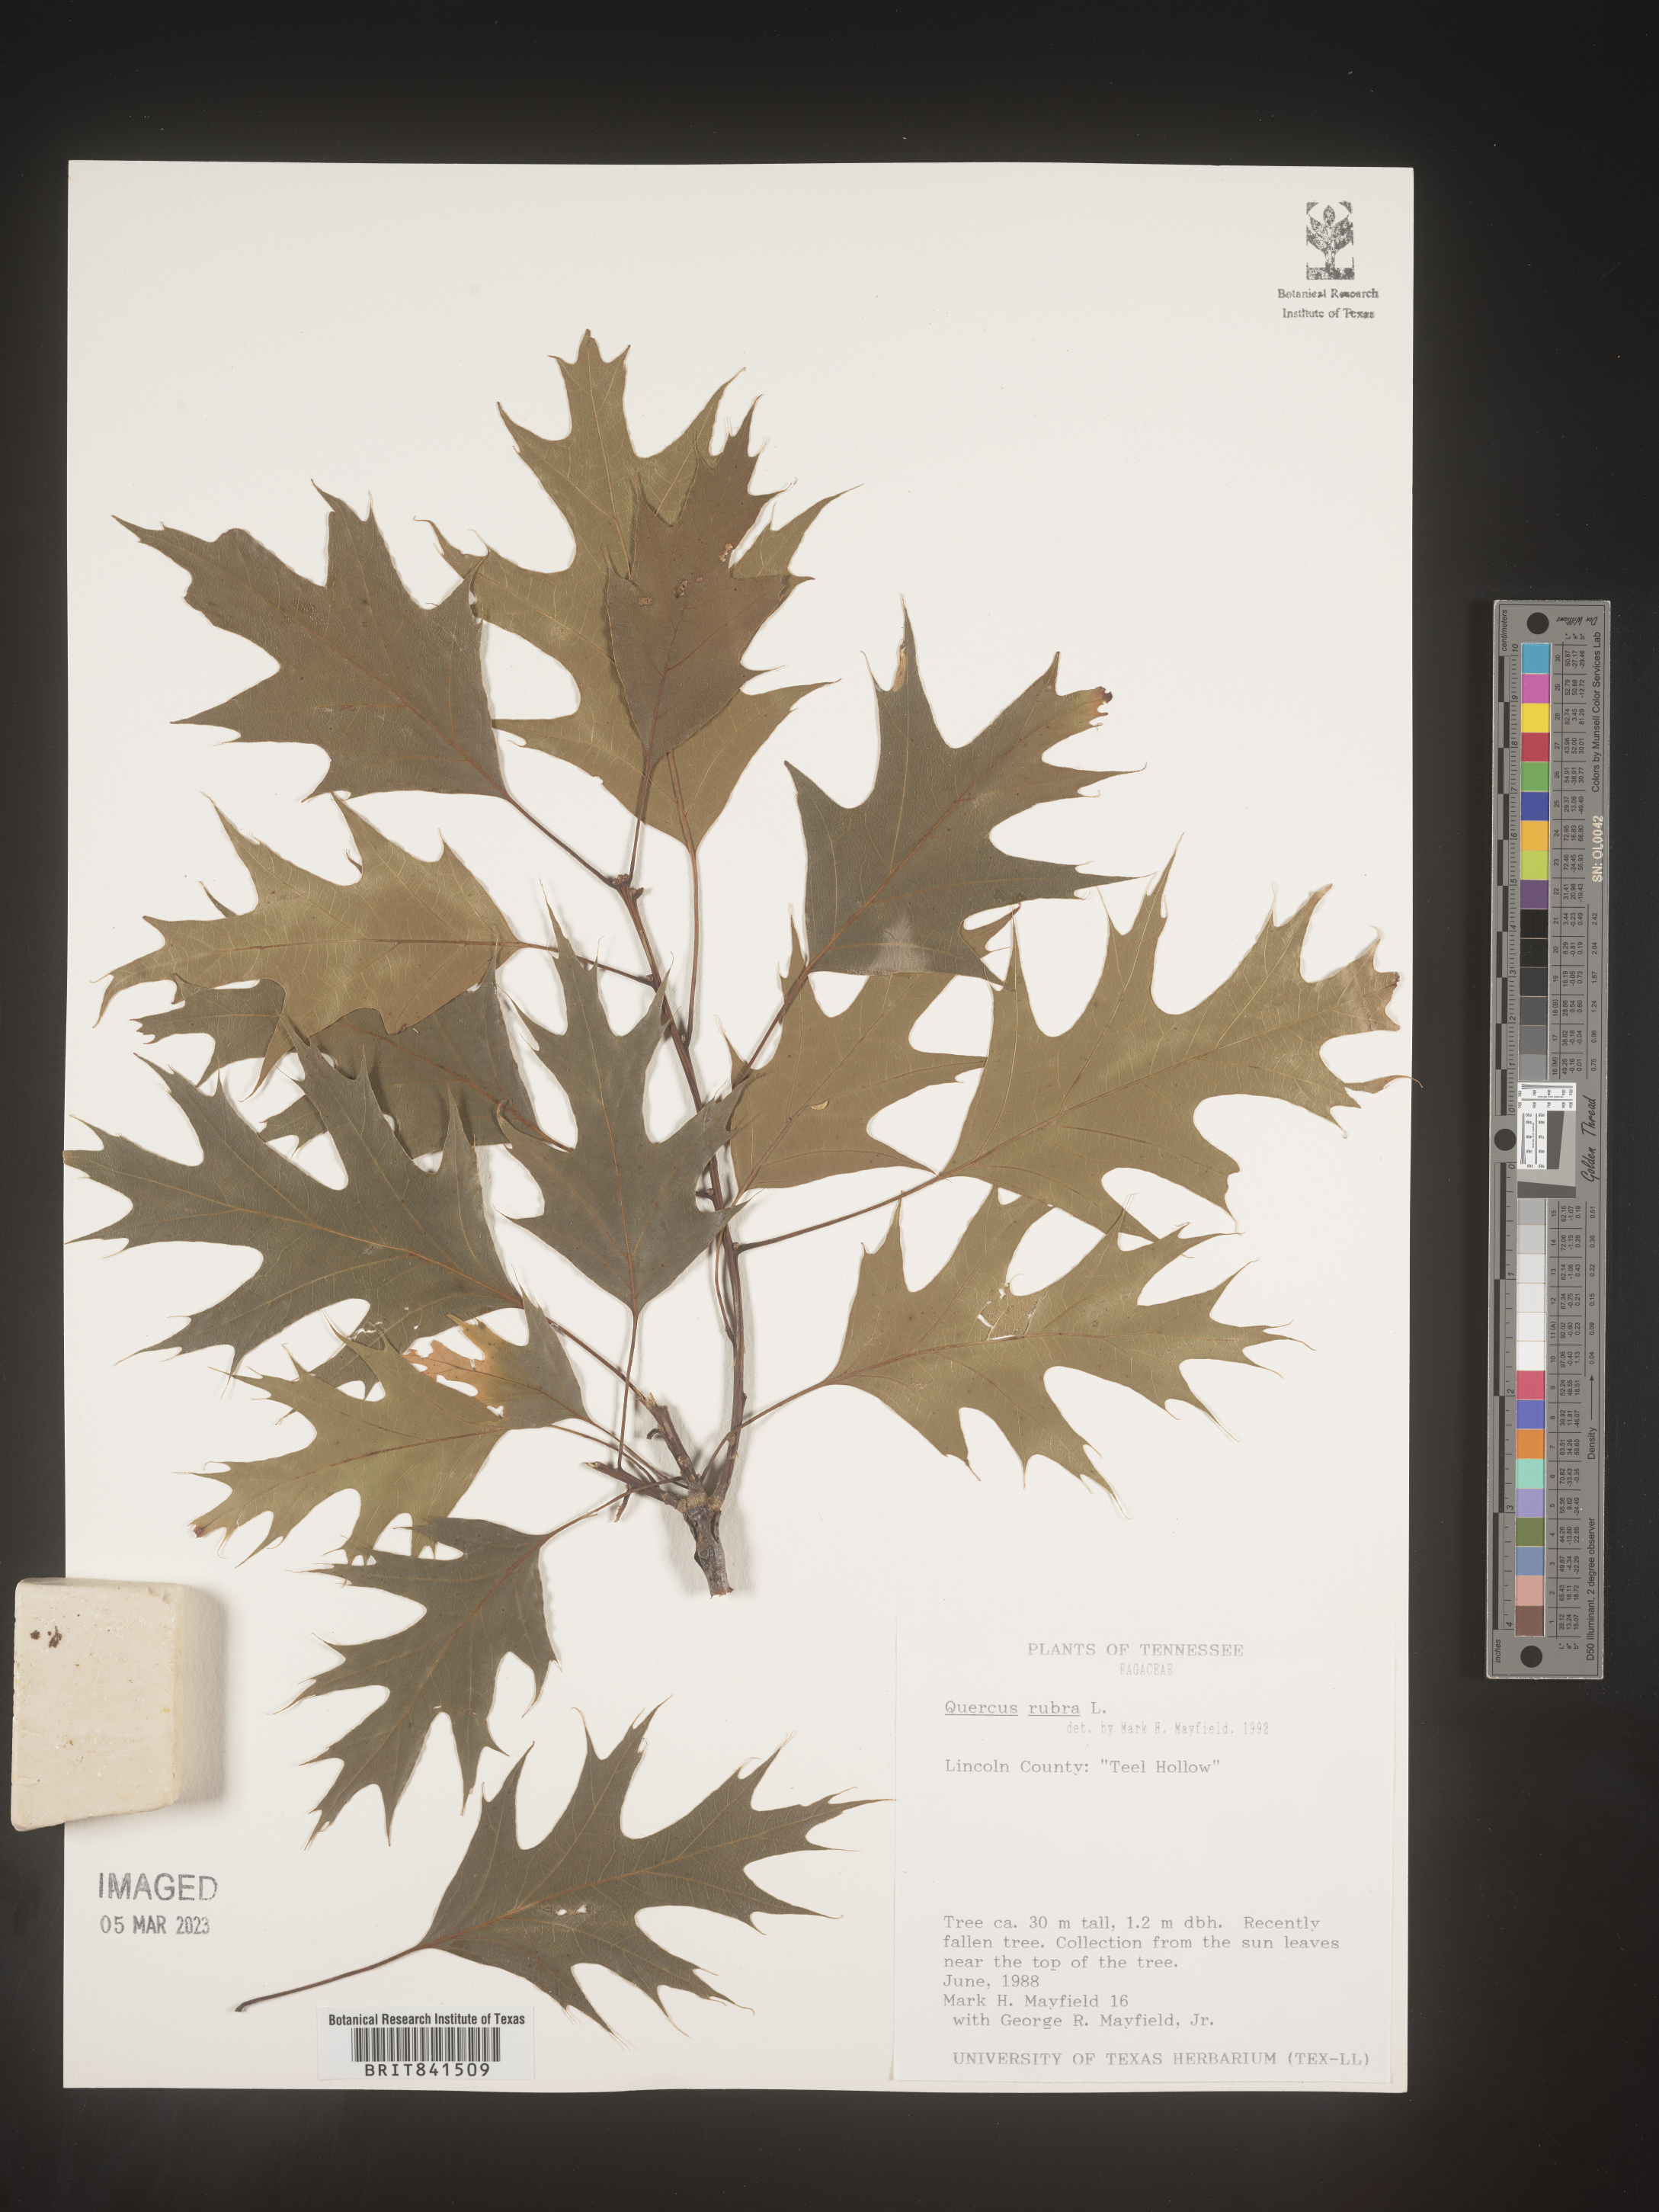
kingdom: Plantae
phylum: Tracheophyta
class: Magnoliopsida
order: Fagales
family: Fagaceae
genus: Quercus
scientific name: Quercus rubra
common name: Red oak
